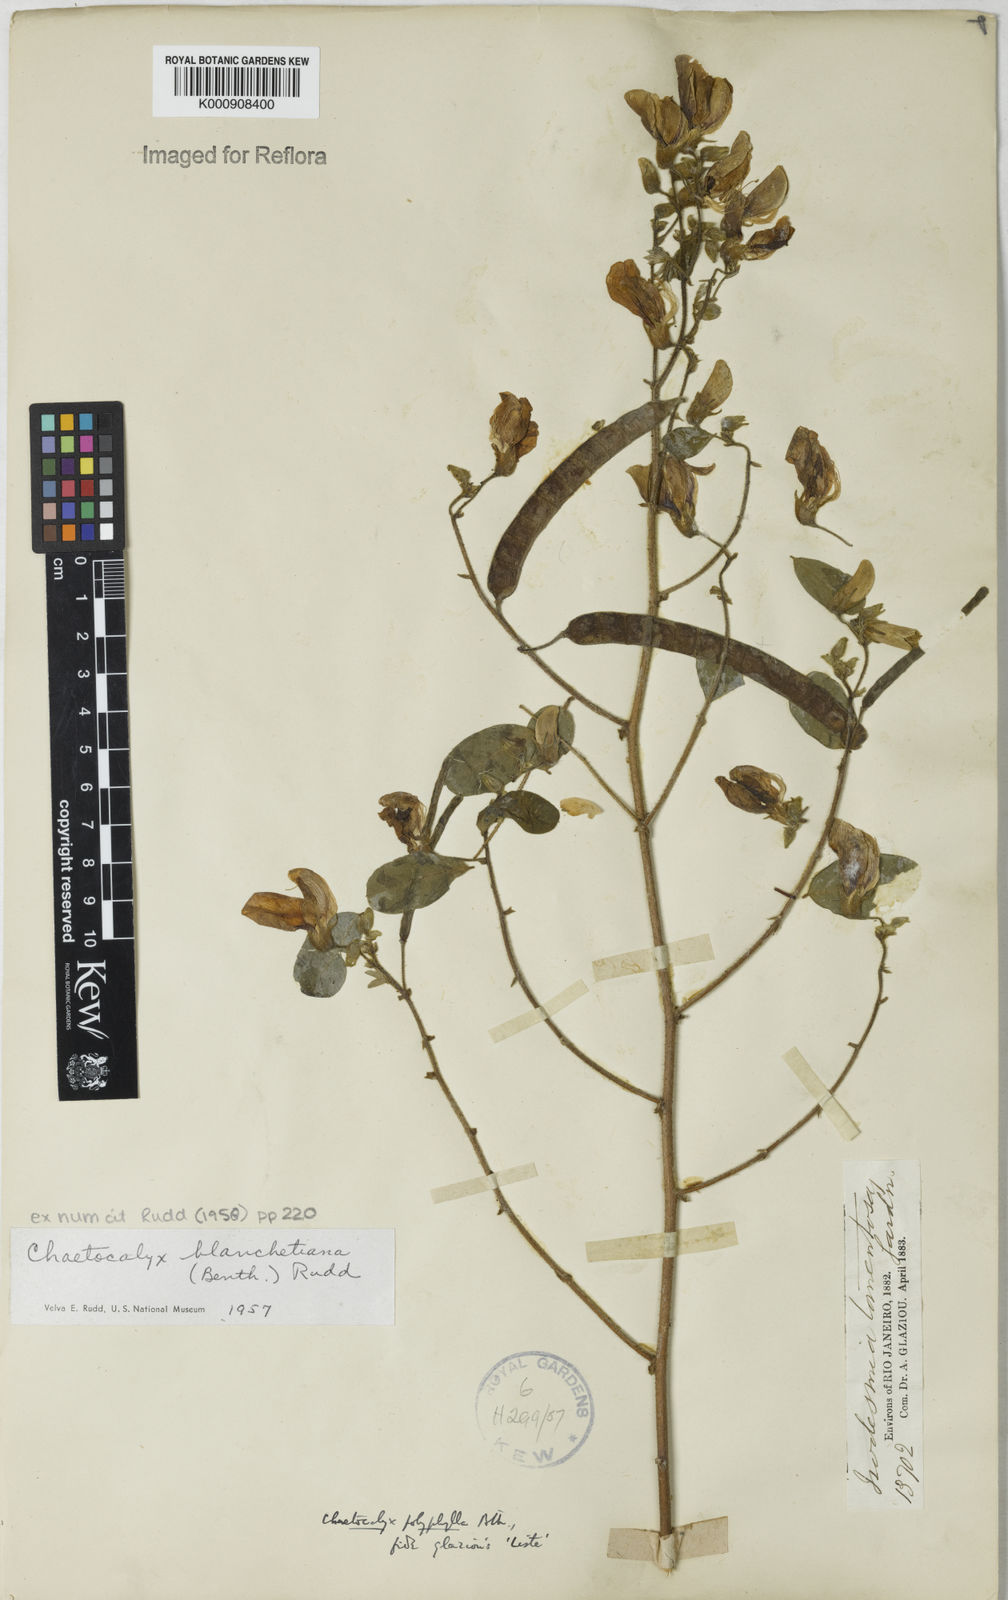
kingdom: Plantae
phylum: Tracheophyta
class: Magnoliopsida
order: Fabales
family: Fabaceae
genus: Nissolia
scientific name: Nissolia blanchetiana
